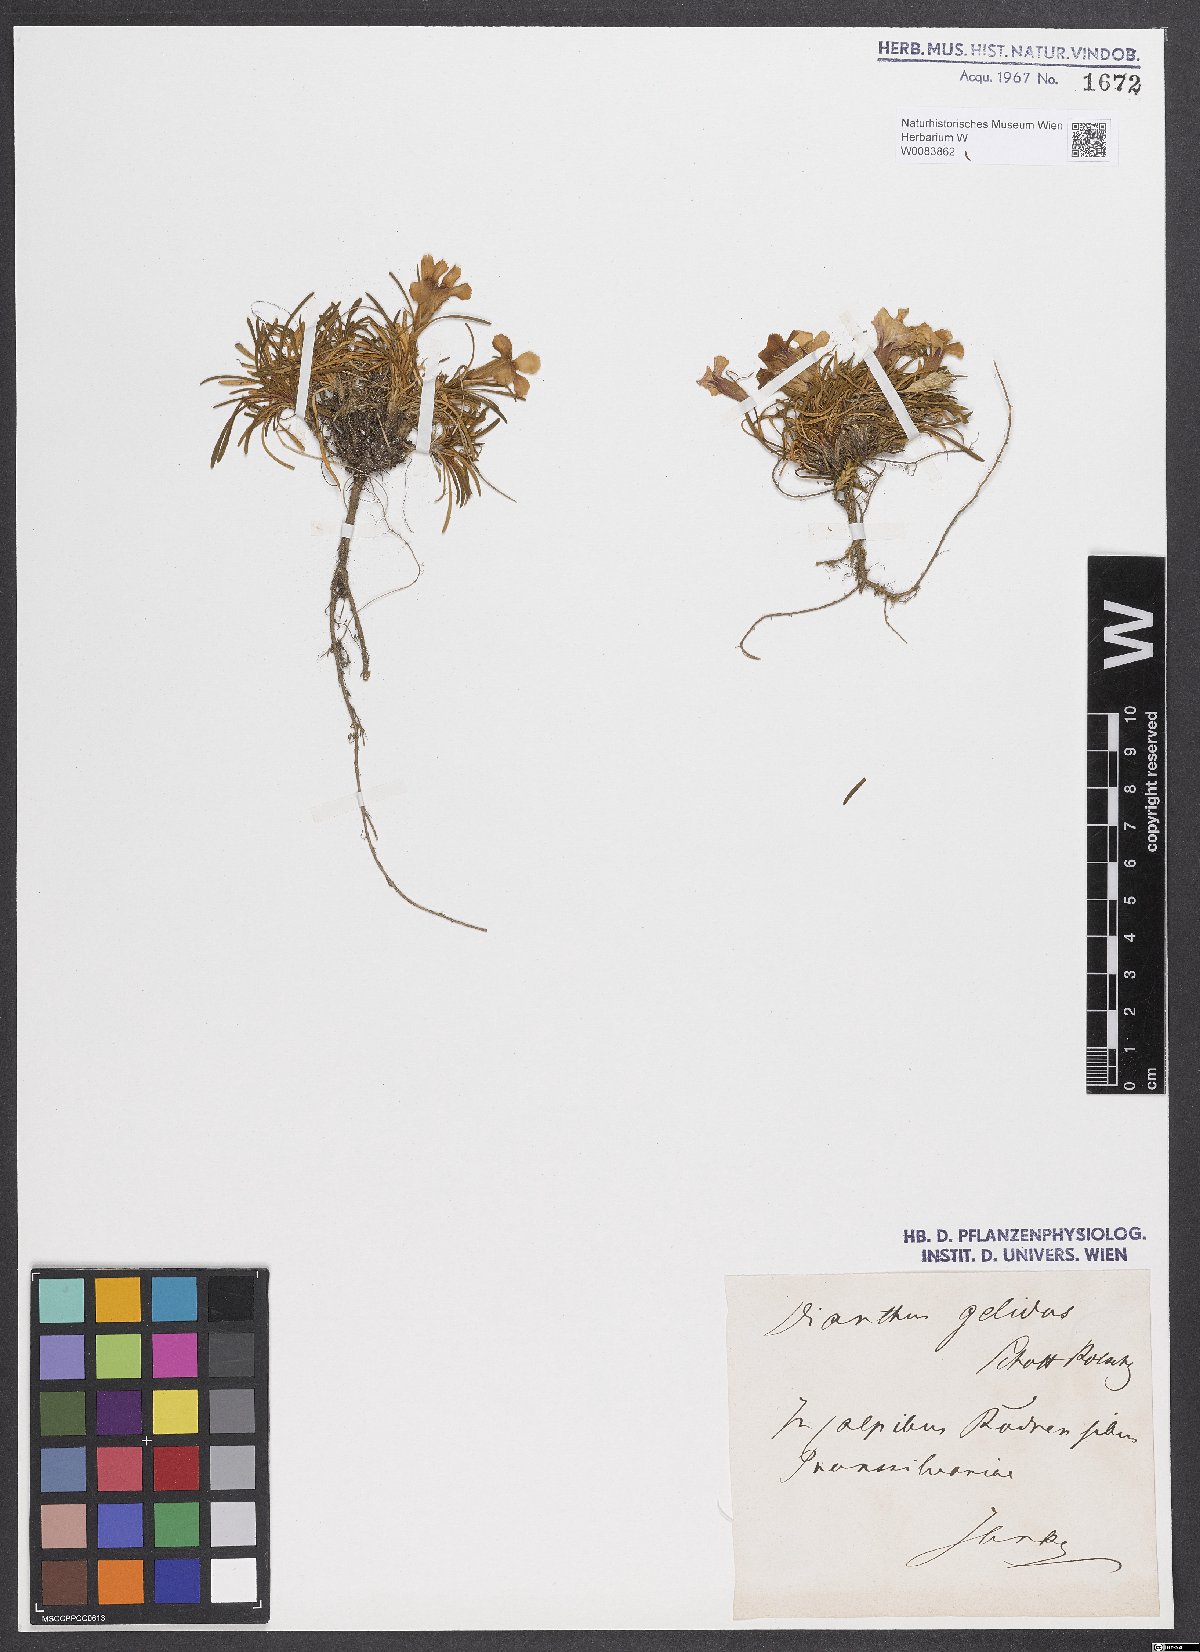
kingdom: Plantae
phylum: Tracheophyta
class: Magnoliopsida
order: Caryophyllales
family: Caryophyllaceae
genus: Dianthus
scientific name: Dianthus glacialis
